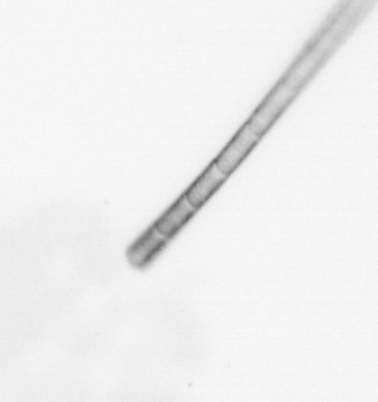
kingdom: Chromista
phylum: Ochrophyta
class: Bacillariophyceae
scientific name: Bacillariophyceae
